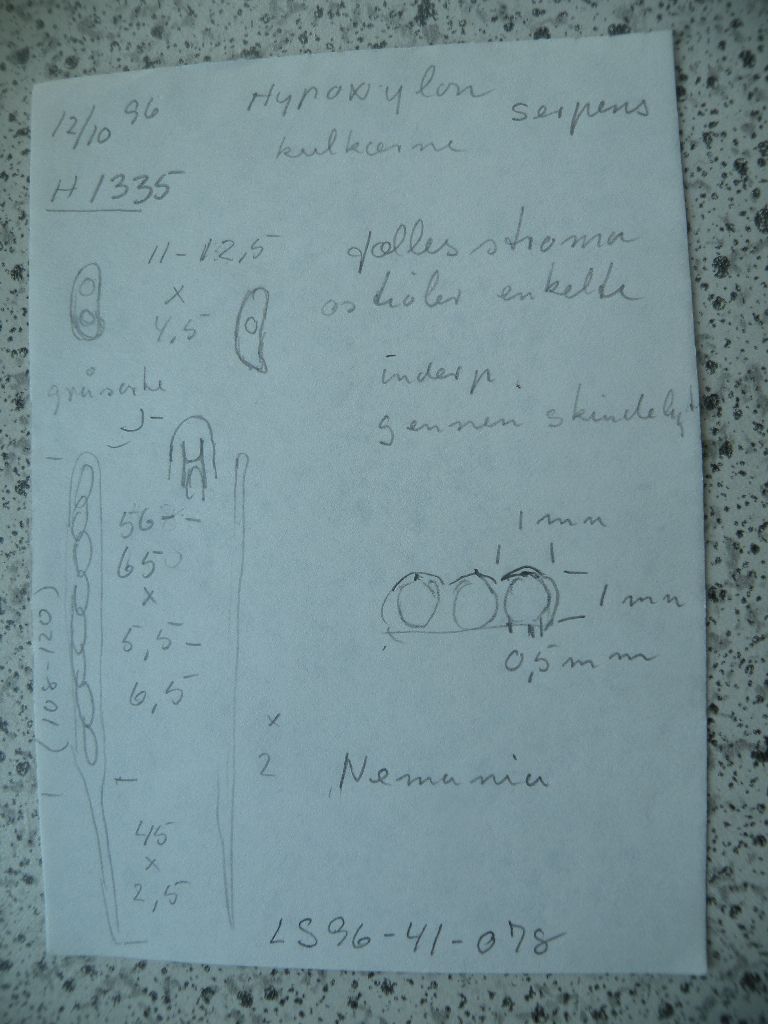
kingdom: Fungi
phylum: Ascomycota
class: Sordariomycetes
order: Xylariales
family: Xylariaceae
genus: Nemania
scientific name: Nemania serpens
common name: almindelig kuldyne
